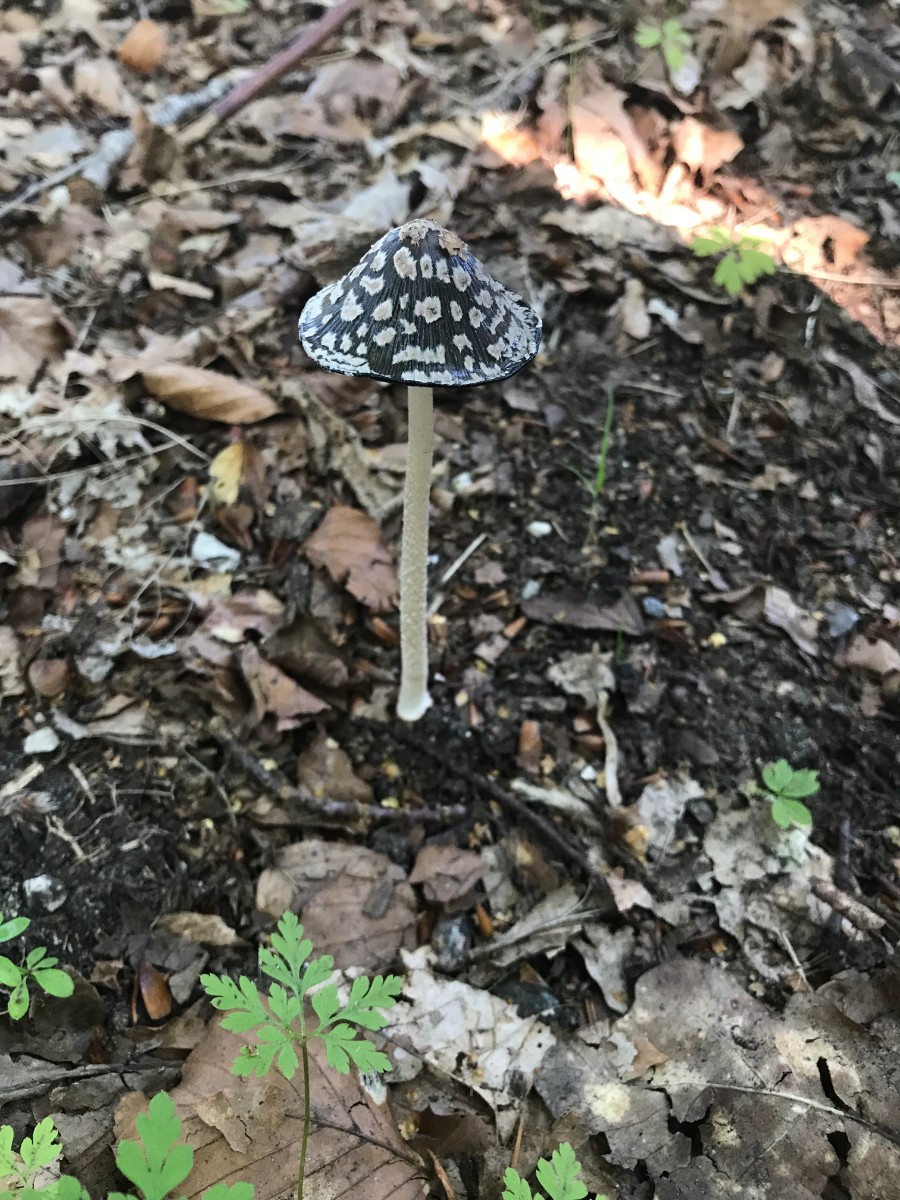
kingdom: Fungi
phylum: Basidiomycota
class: Agaricomycetes
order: Agaricales
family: Psathyrellaceae
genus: Coprinopsis
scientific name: Coprinopsis picacea
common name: skade-blækhat
